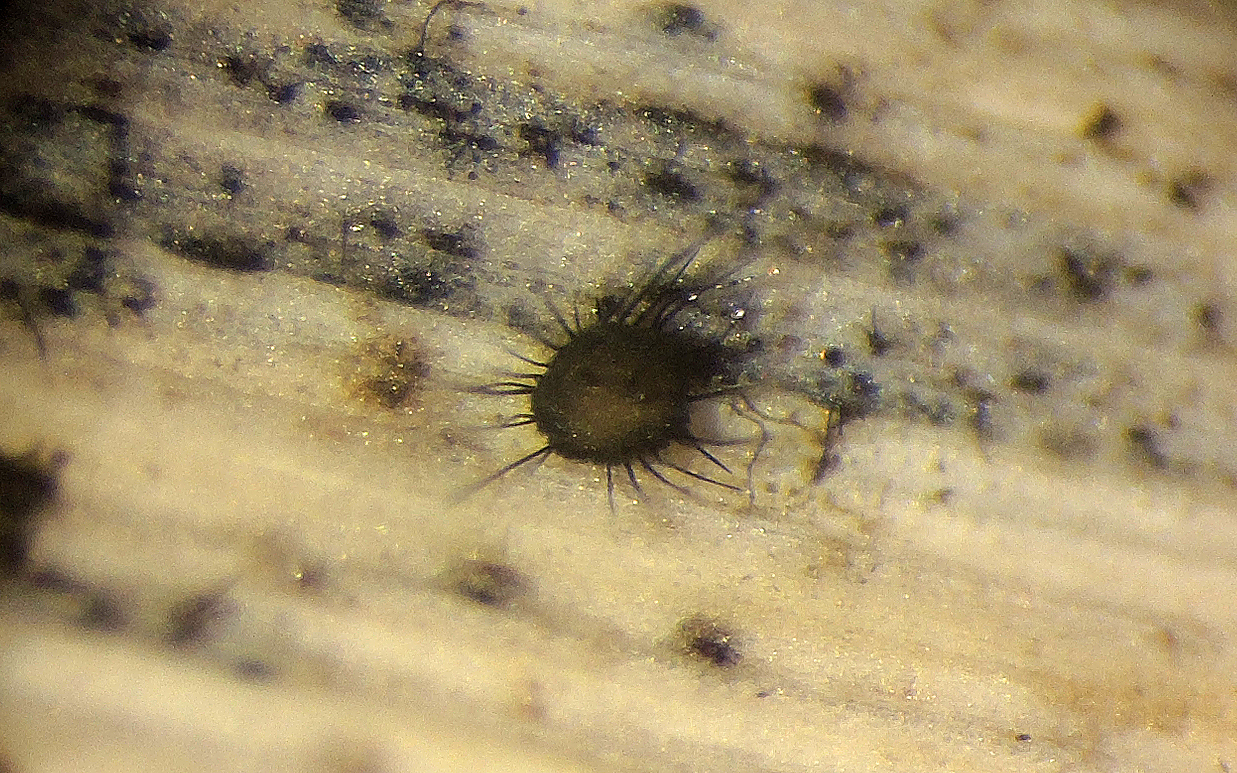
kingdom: Fungi
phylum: Ascomycota
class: Sordariomycetes
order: Chaetosphaeriales
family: Chaetosphaeriaceae
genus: Pseudolachnea
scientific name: Pseudolachnea hispidula
